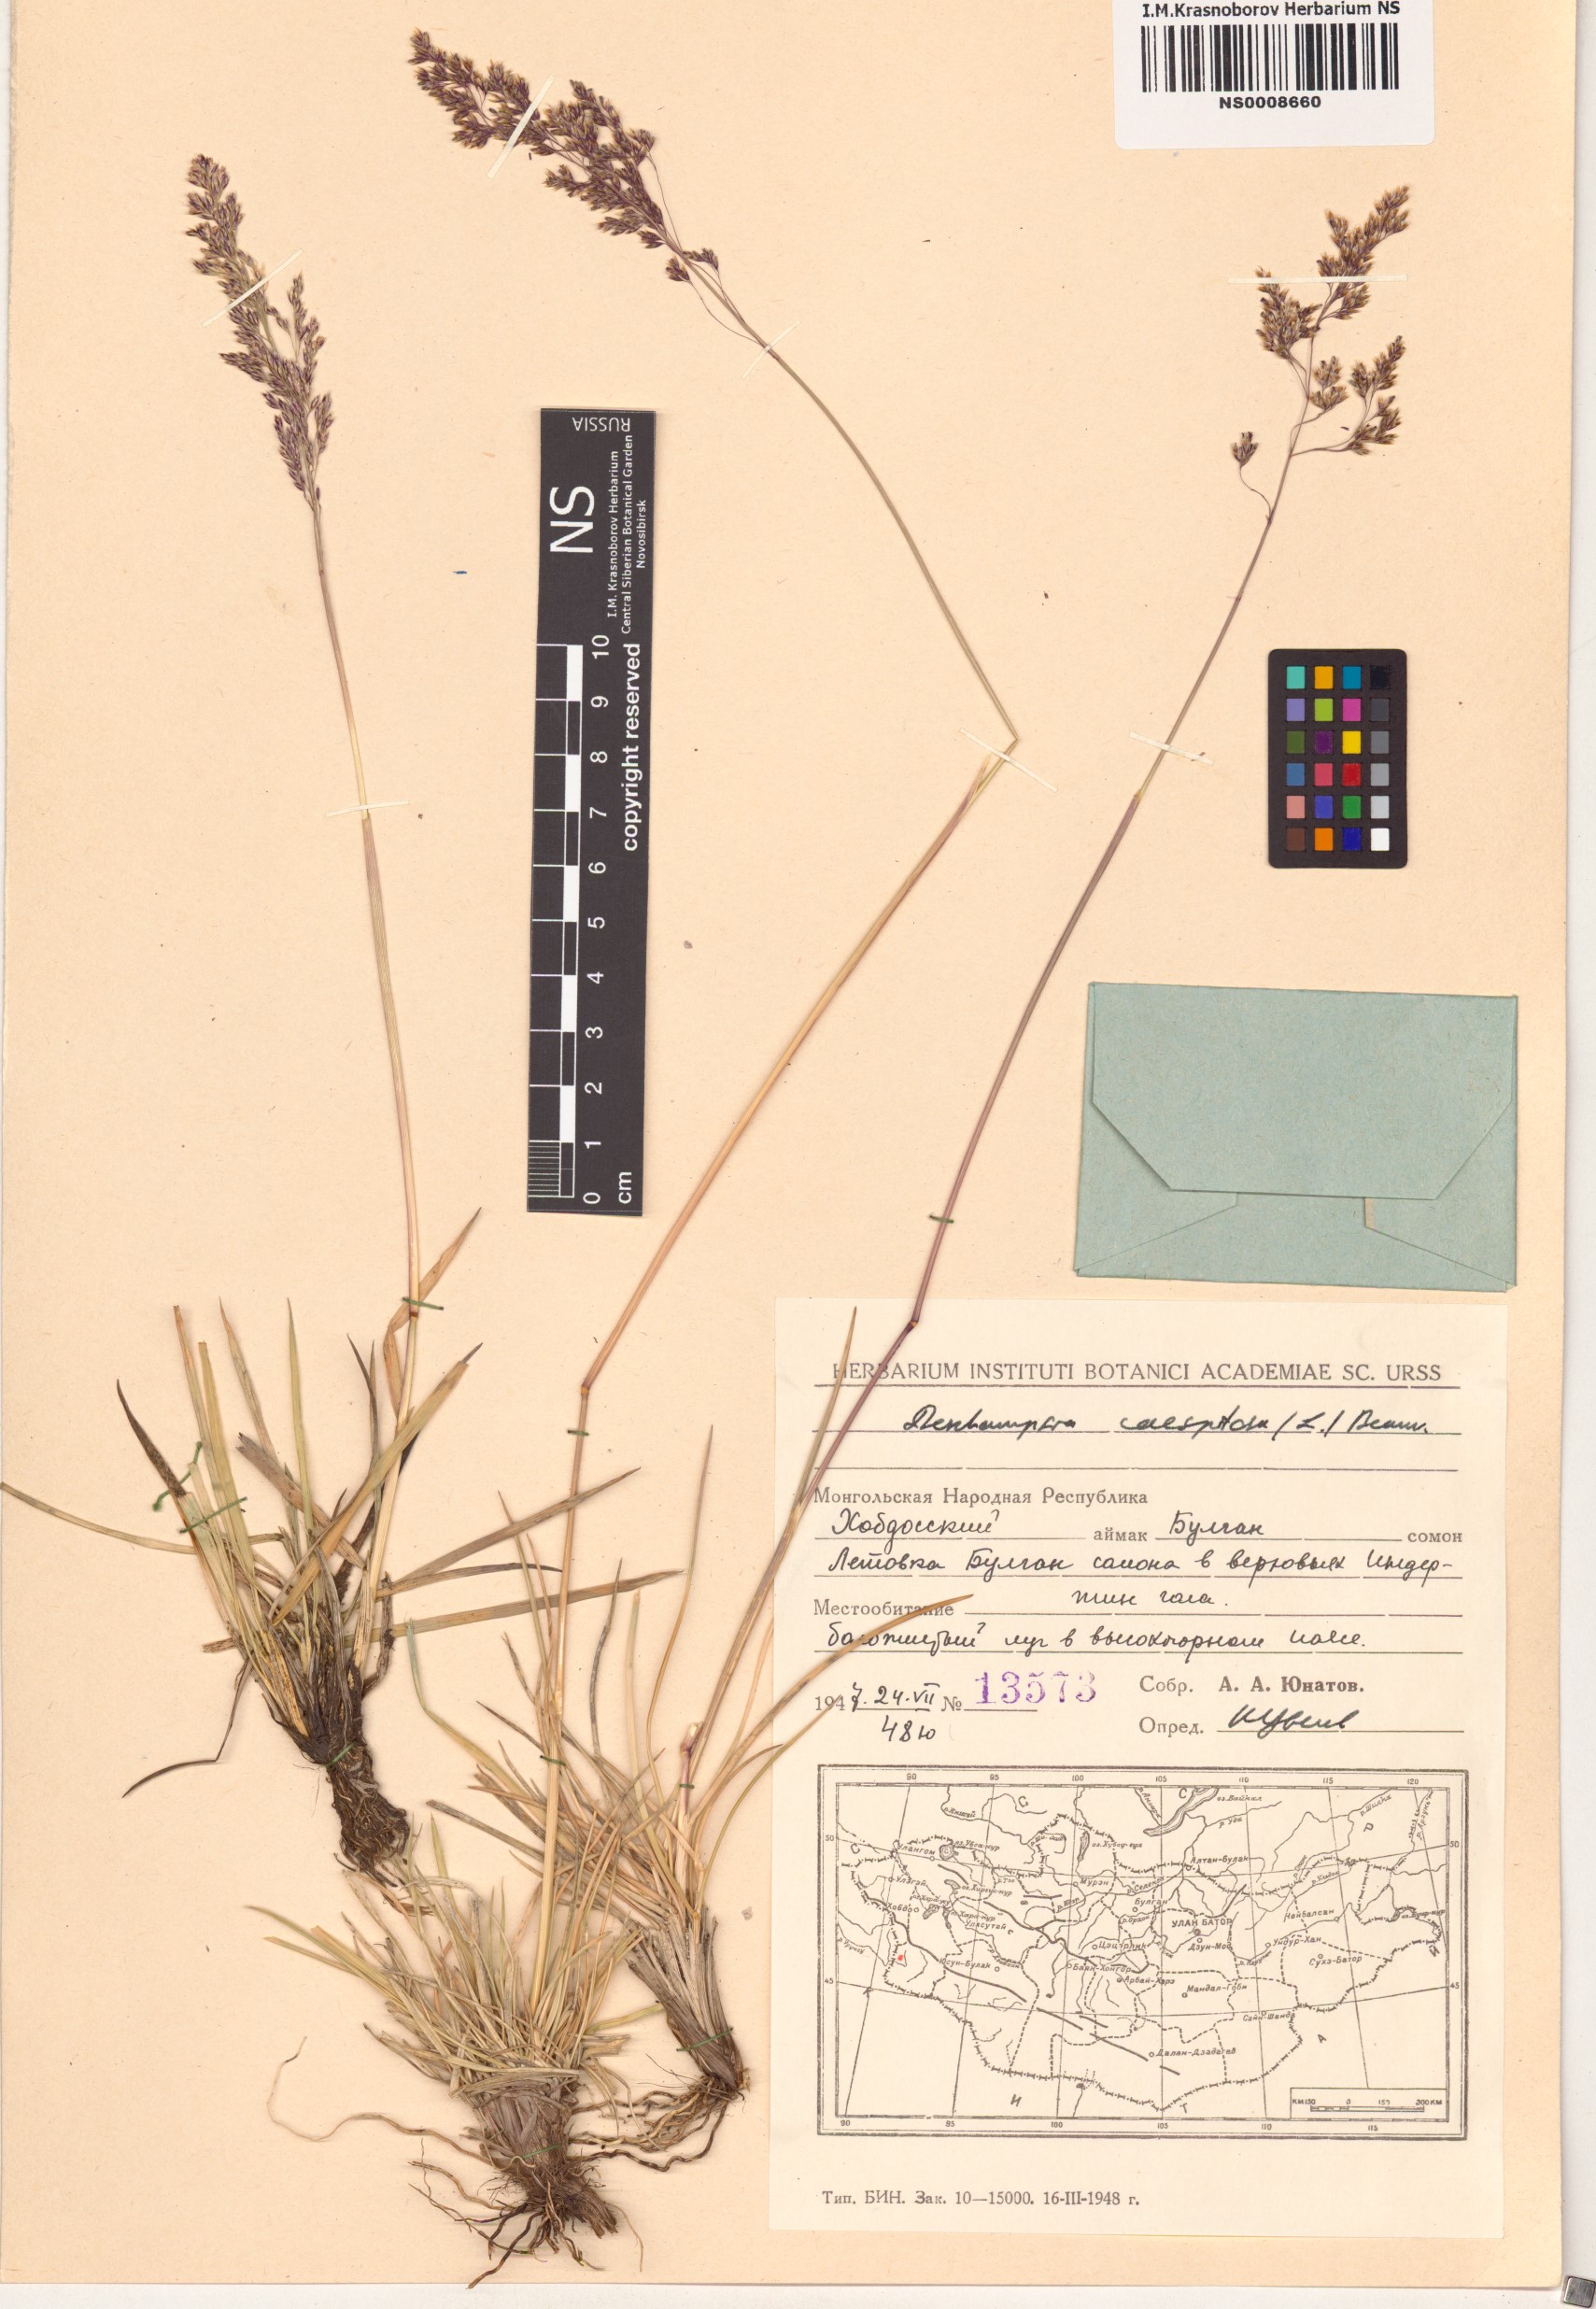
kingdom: Plantae
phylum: Tracheophyta
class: Liliopsida
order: Poales
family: Poaceae
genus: Deschampsia
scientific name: Deschampsia cespitosa
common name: Tufted hair-grass
